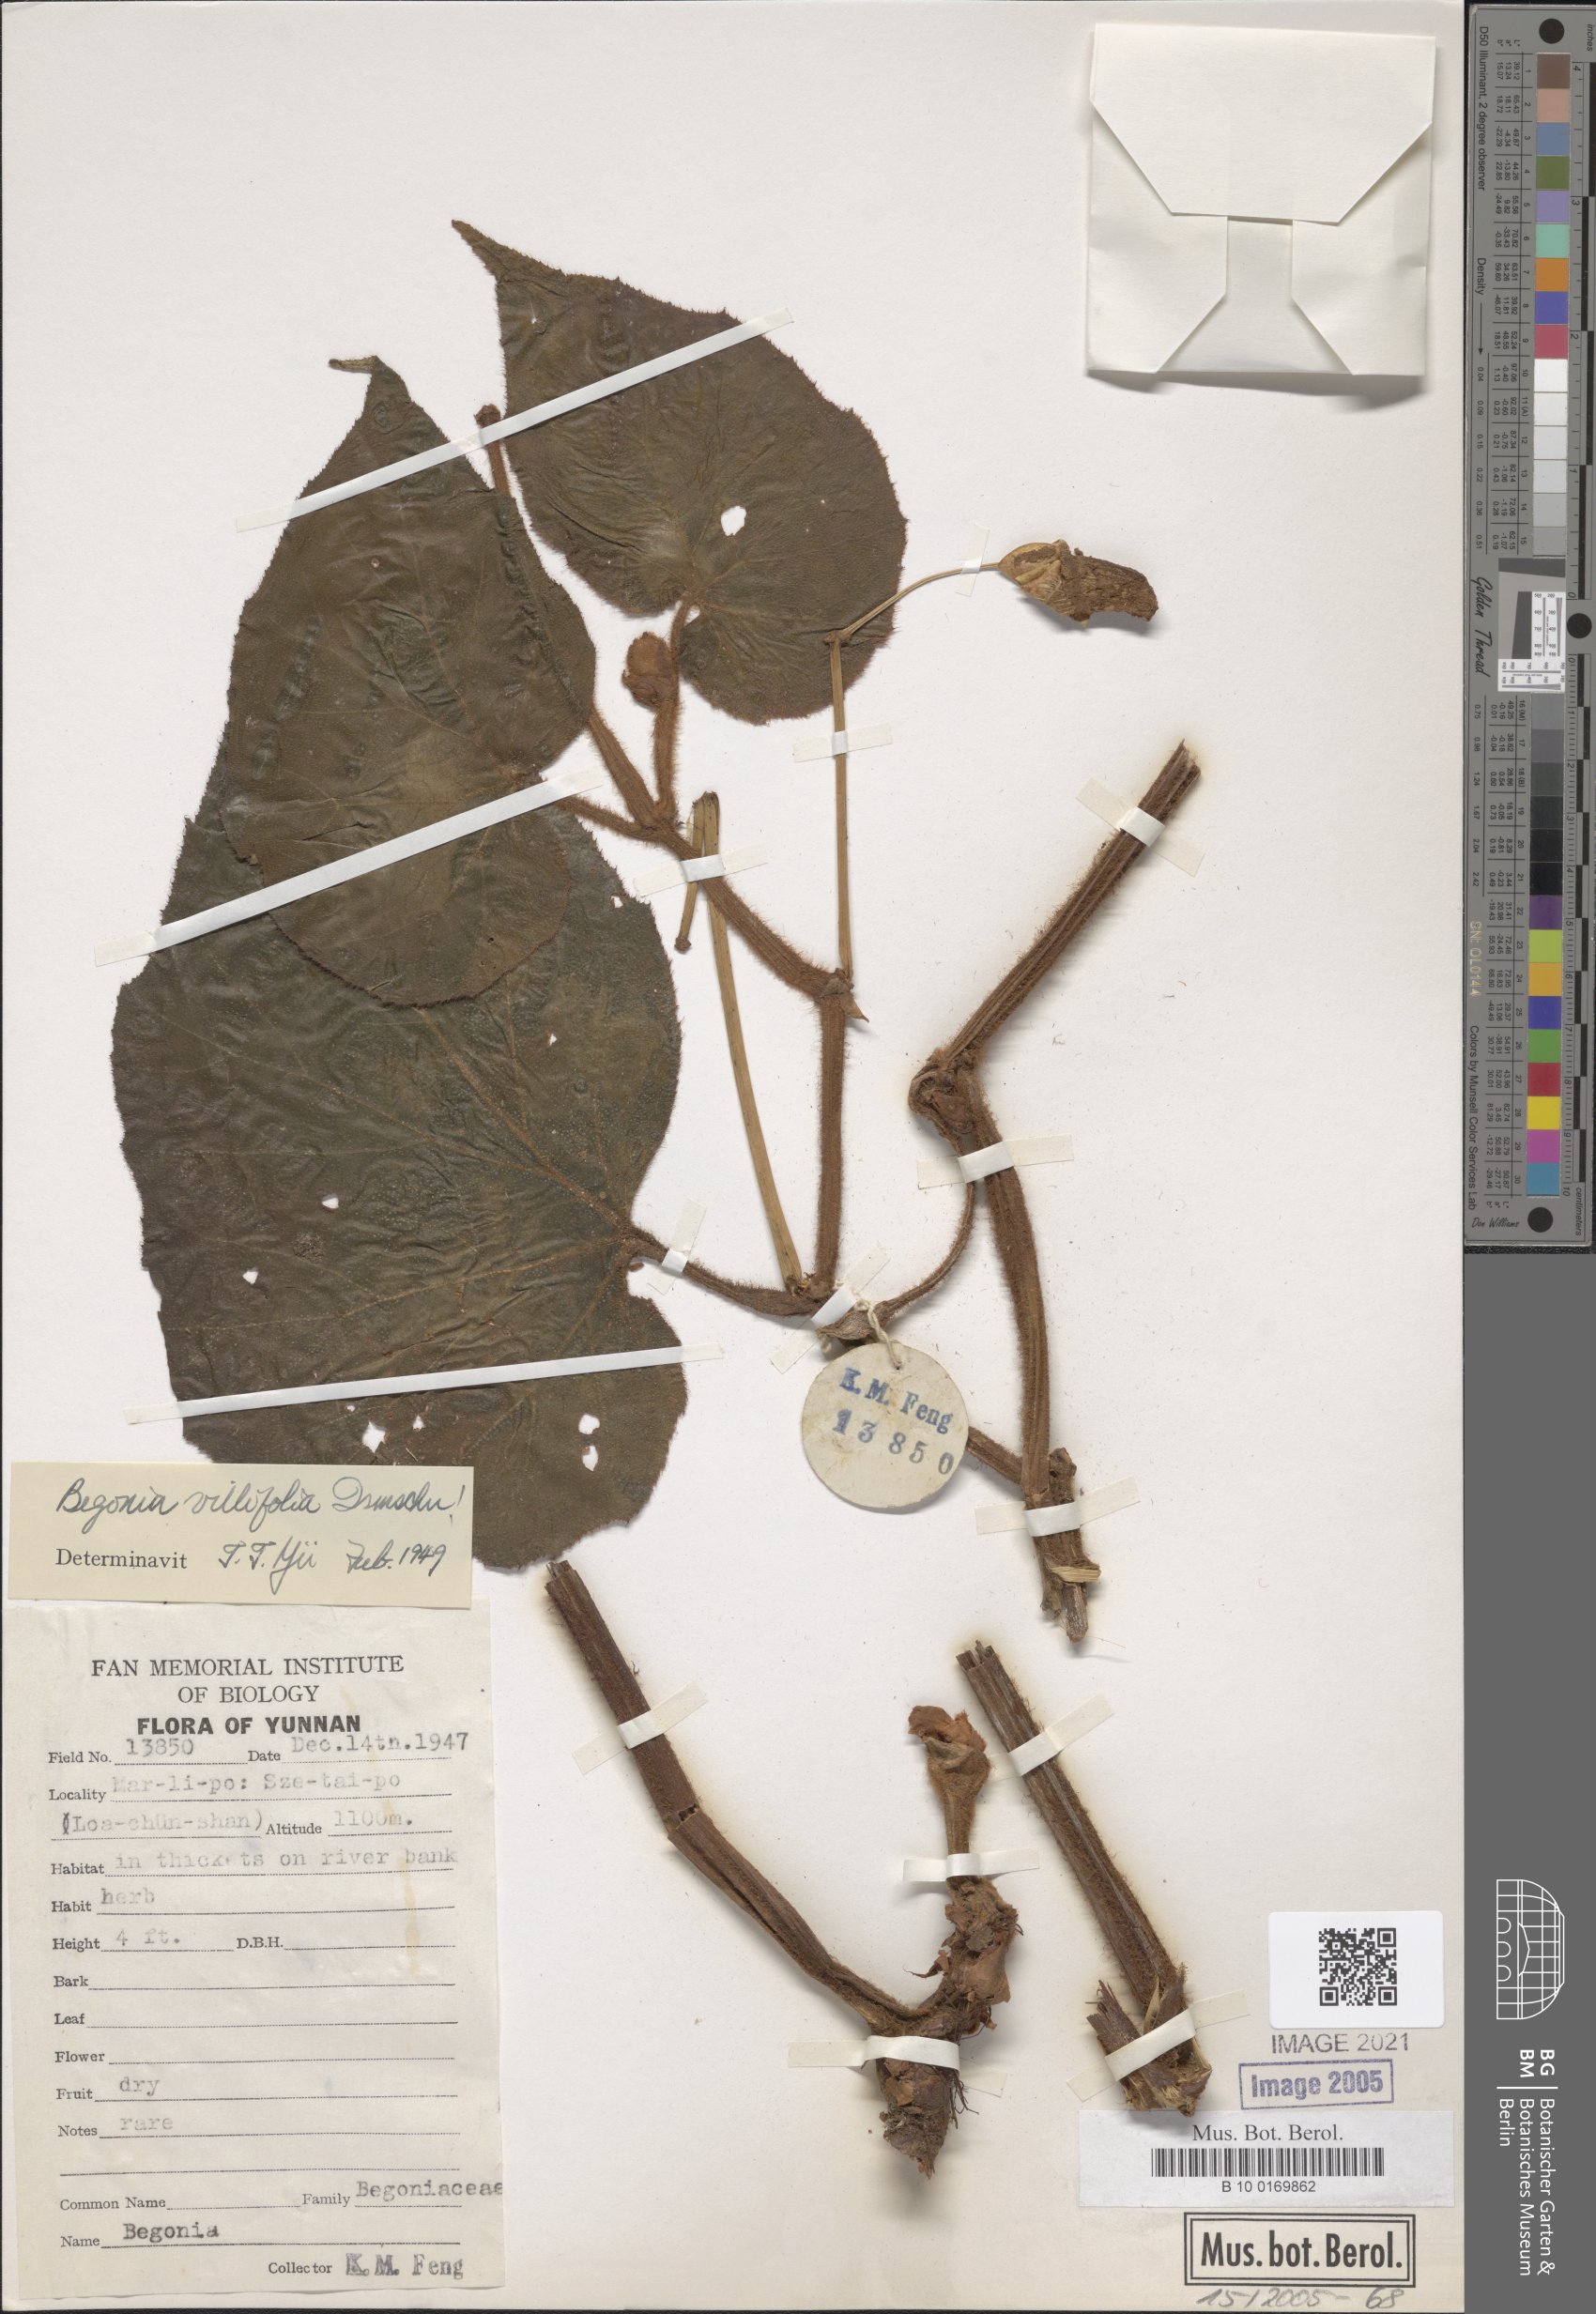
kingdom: Plantae
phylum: Tracheophyta
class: Magnoliopsida
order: Cucurbitales
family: Begoniaceae
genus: Begonia
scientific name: Begonia villifolia
